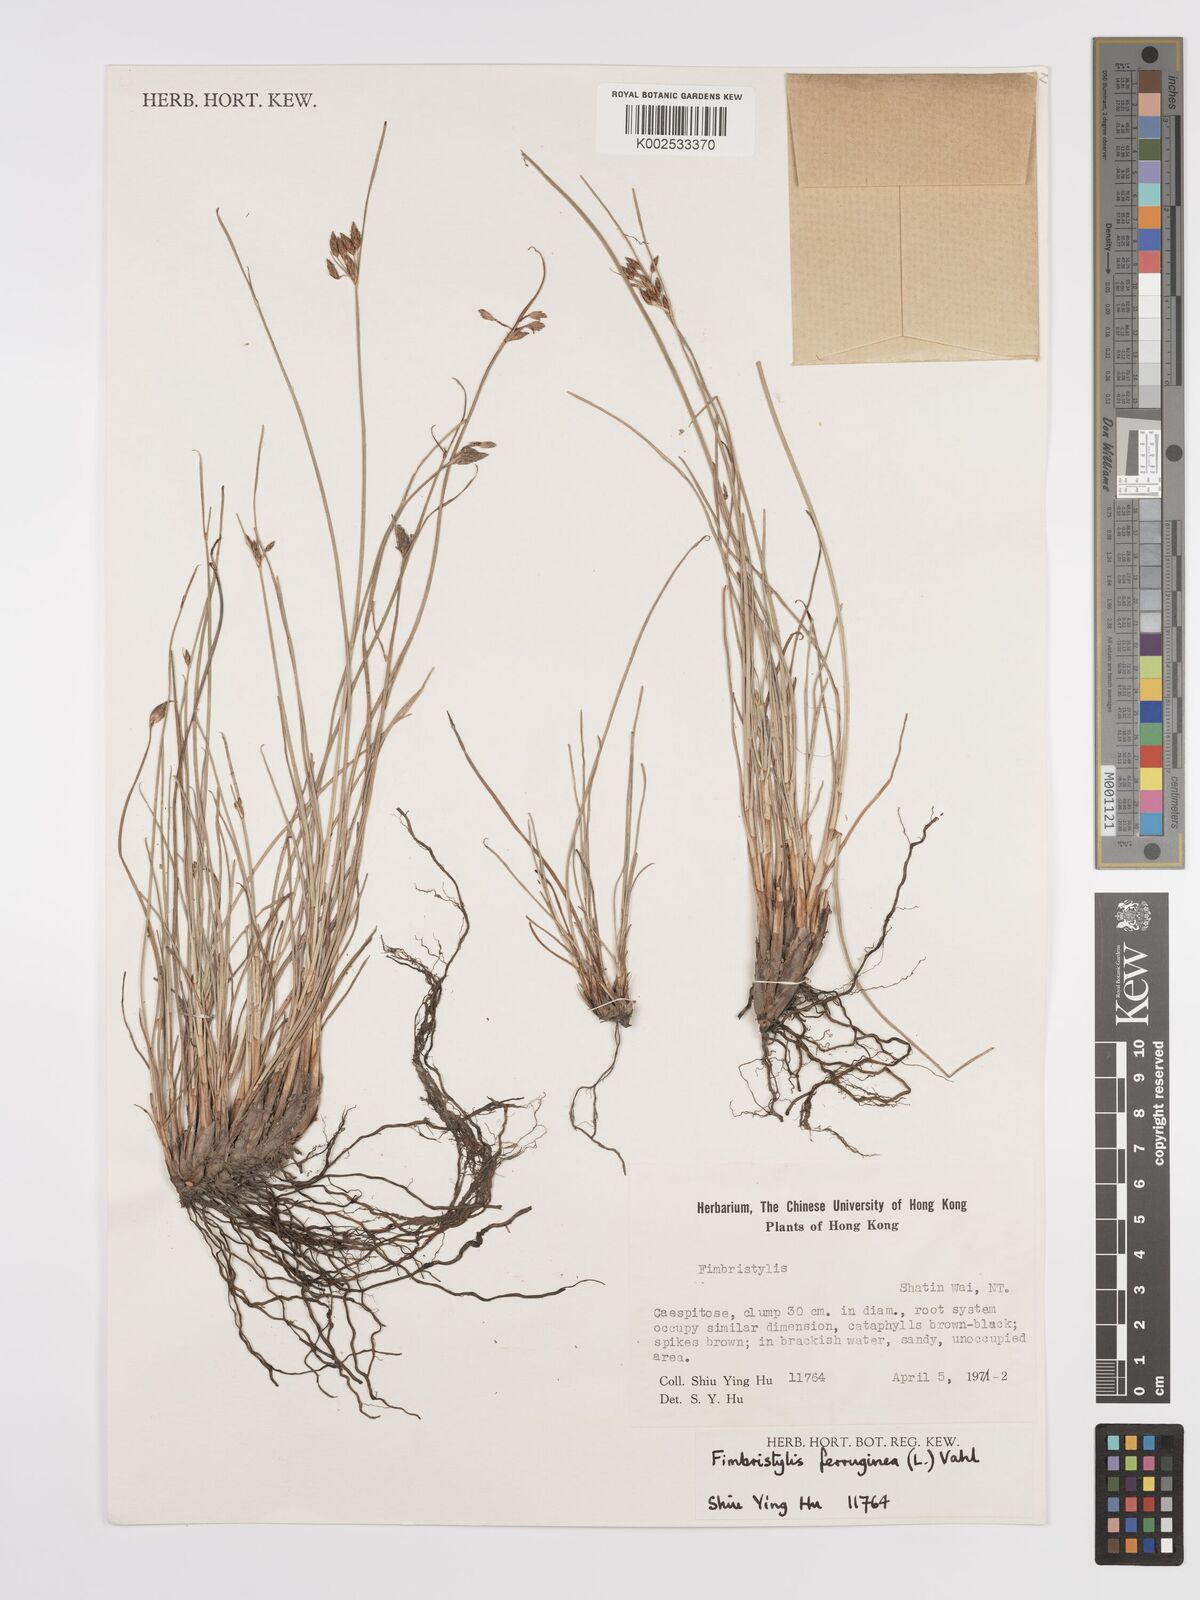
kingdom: Plantae
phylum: Tracheophyta
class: Liliopsida
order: Poales
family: Cyperaceae
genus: Fimbristylis
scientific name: Fimbristylis ferruginea
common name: West indian fimbry
